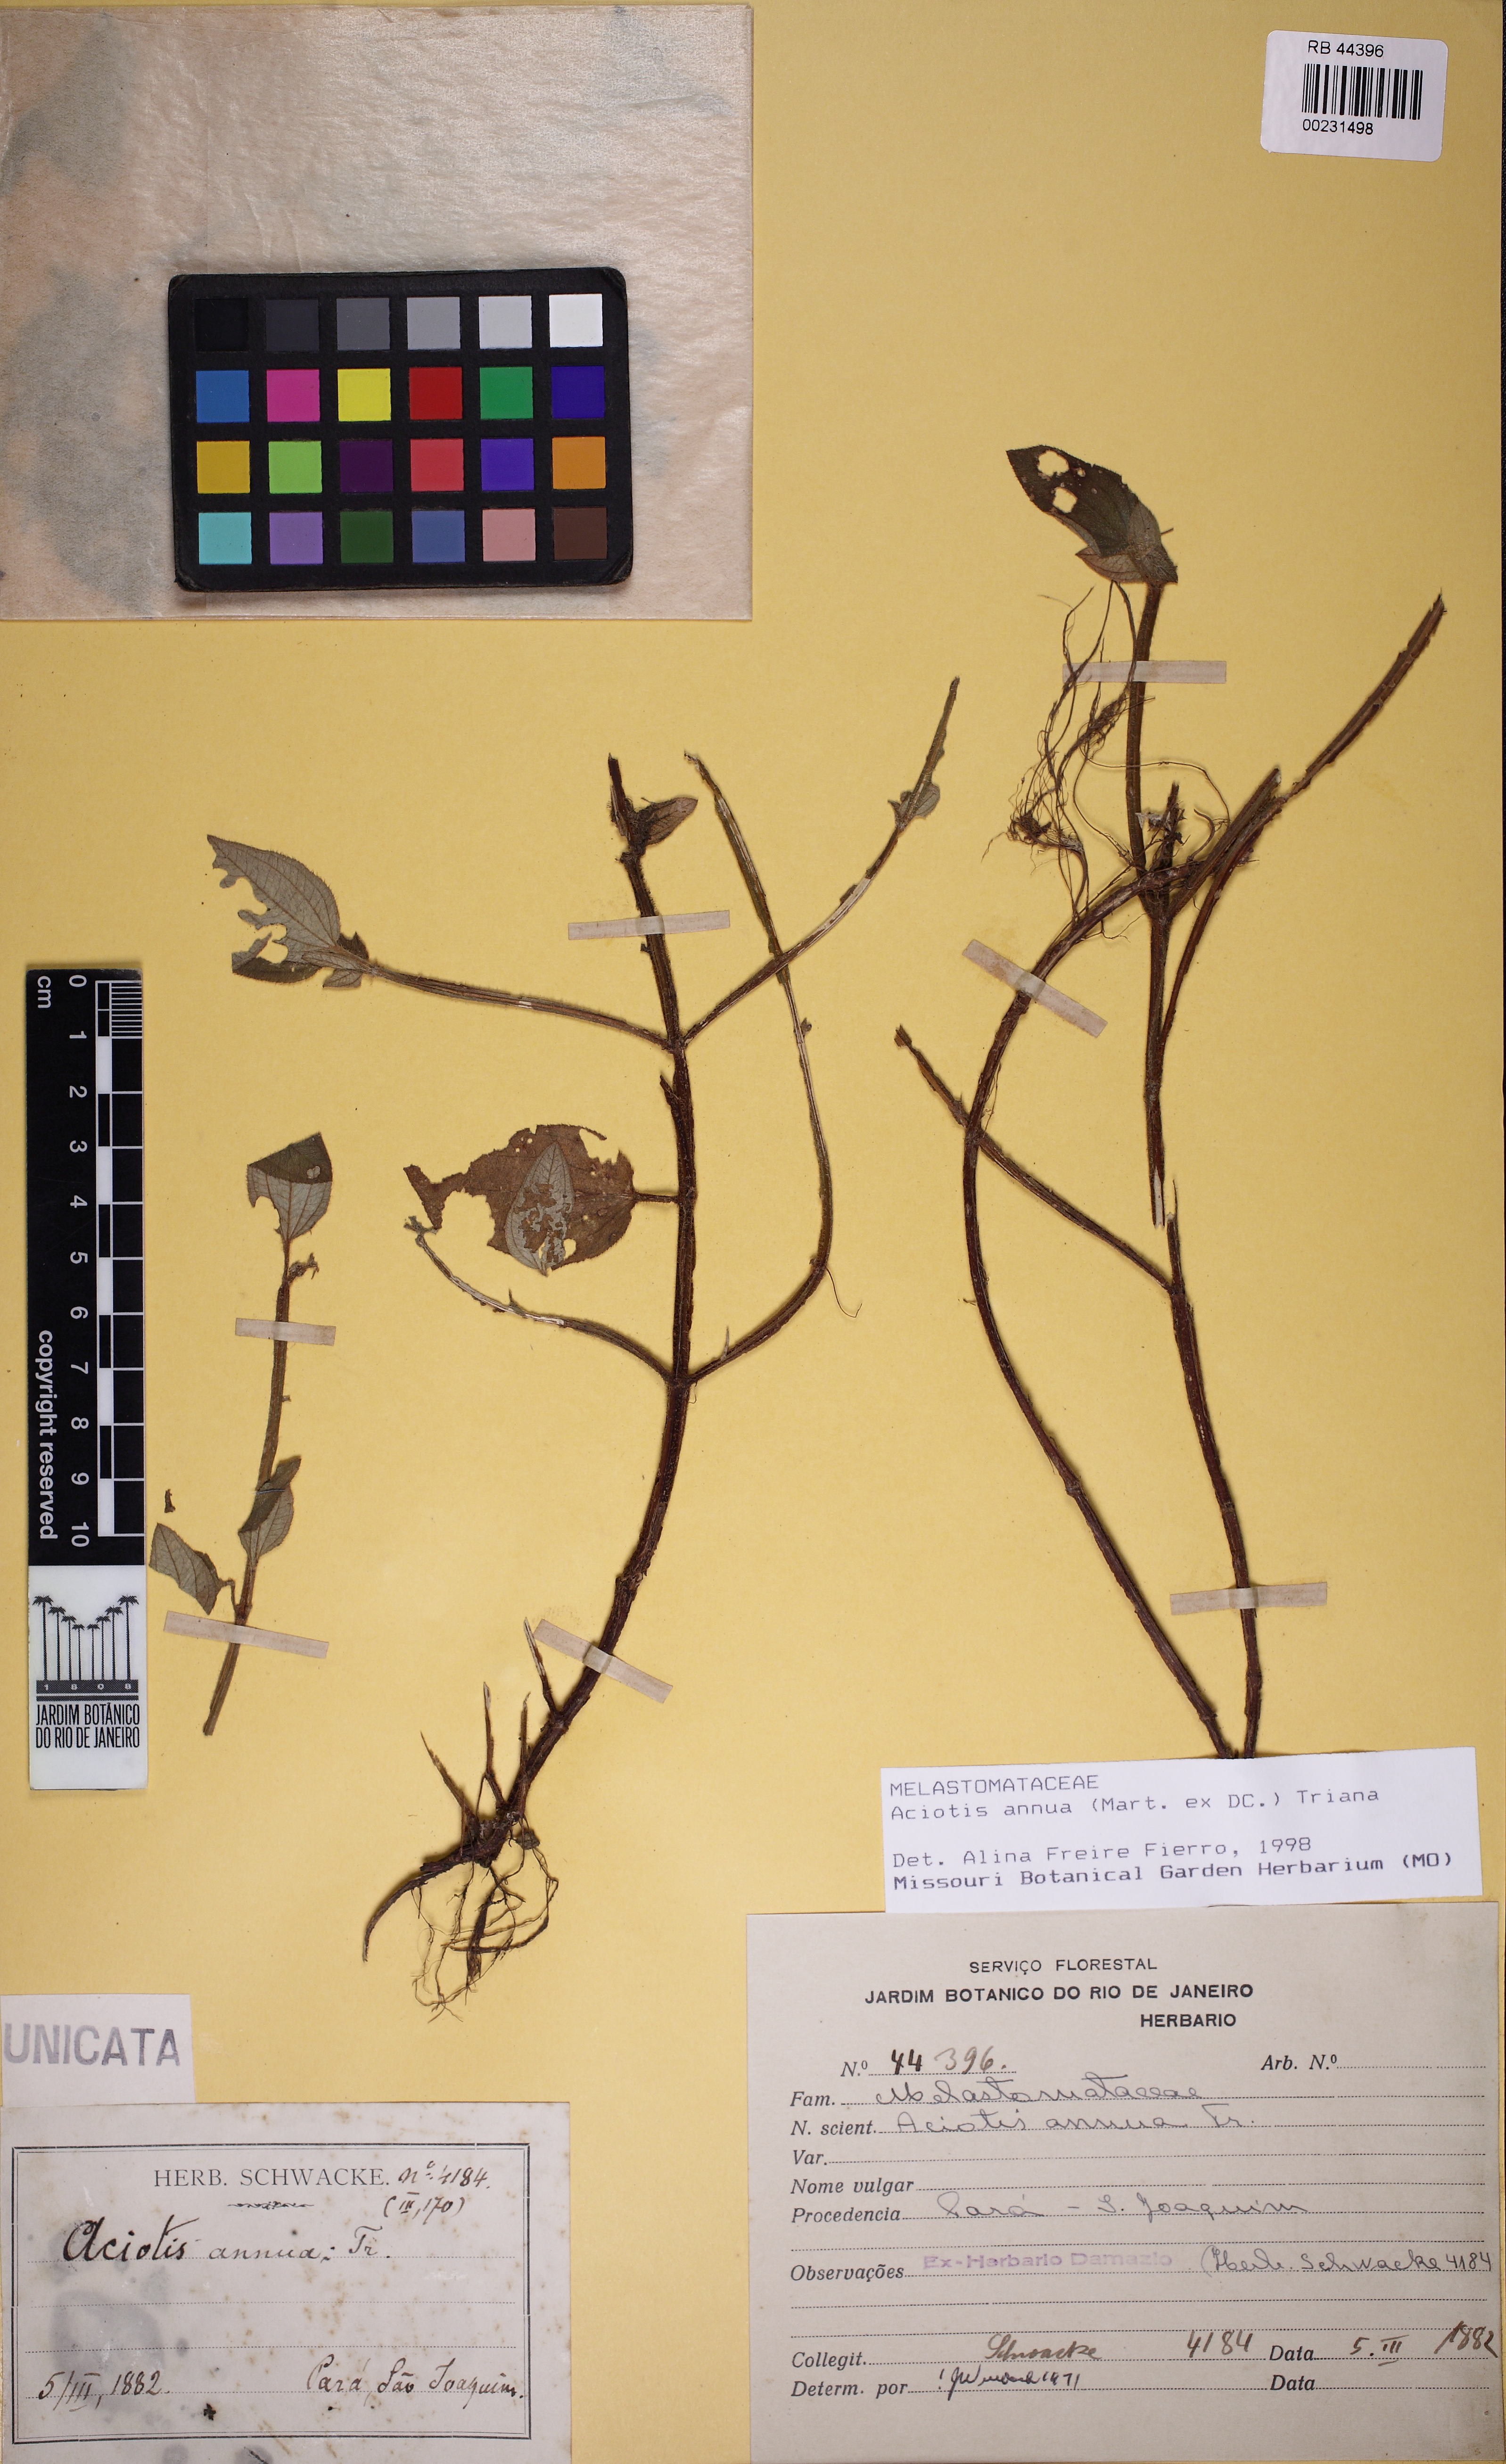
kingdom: Plantae
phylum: Tracheophyta
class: Magnoliopsida
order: Myrtales
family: Melastomataceae
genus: Aciotis
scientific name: Aciotis annua
